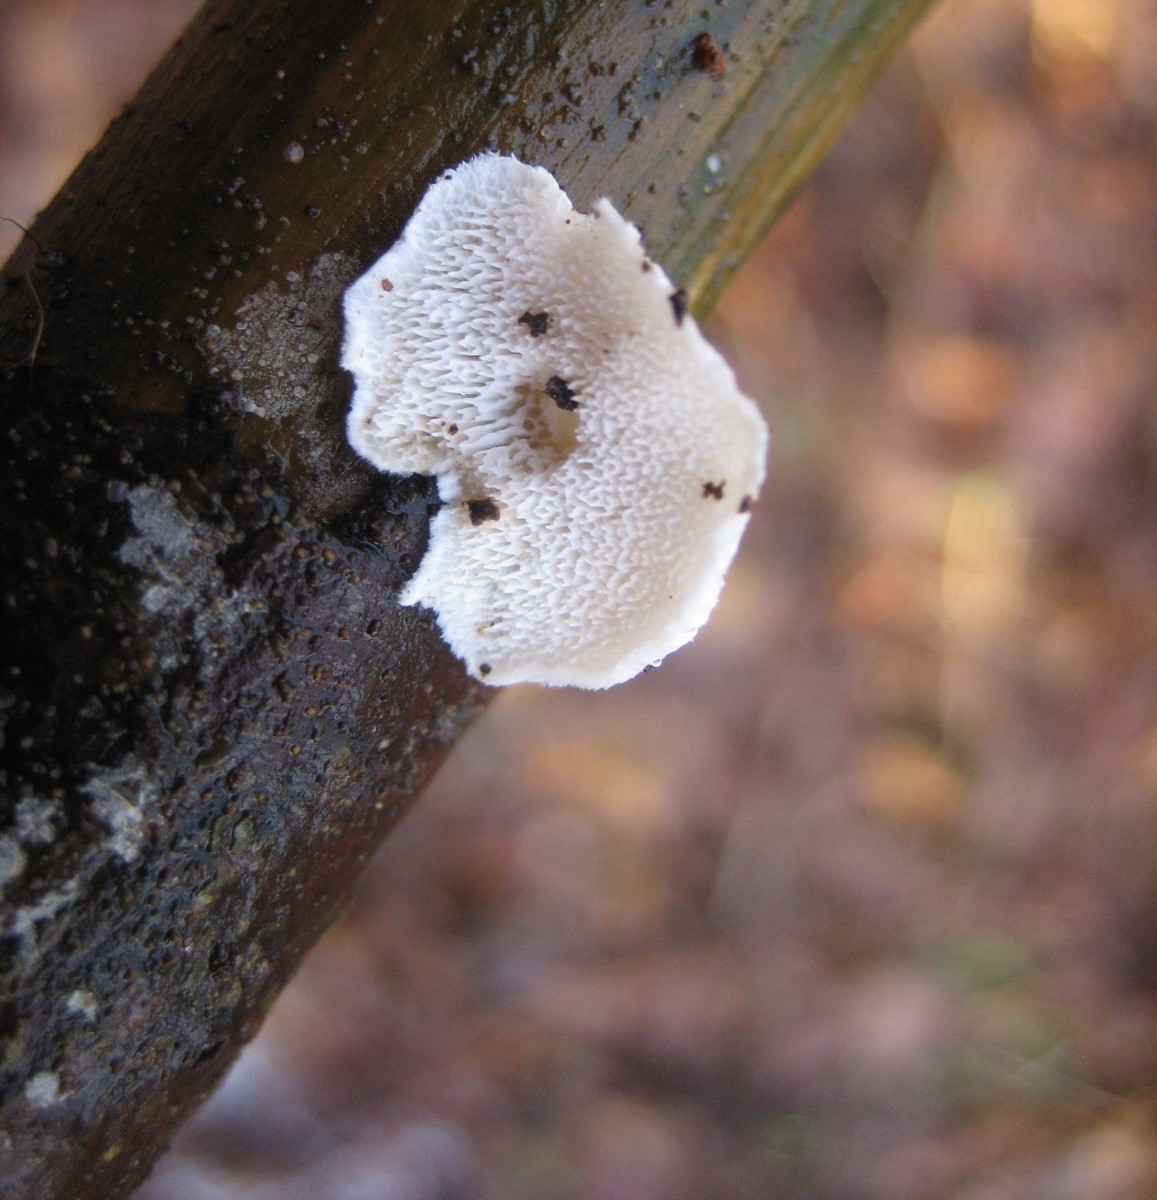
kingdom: Fungi
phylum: Basidiomycota
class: Agaricomycetes
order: Polyporales
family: Incrustoporiaceae
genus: Tyromyces
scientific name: Tyromyces lacteus
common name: mælkehvid kødporesvamp
